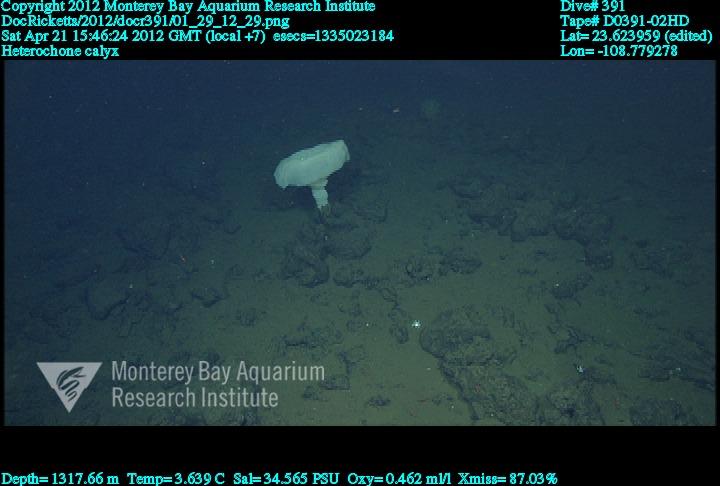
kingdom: Animalia
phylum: Porifera
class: Hexactinellida
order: Sceptrulophora
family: Aphrocallistidae
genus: Heterochone
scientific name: Heterochone calyx
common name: Fingered goblet glass sponge
